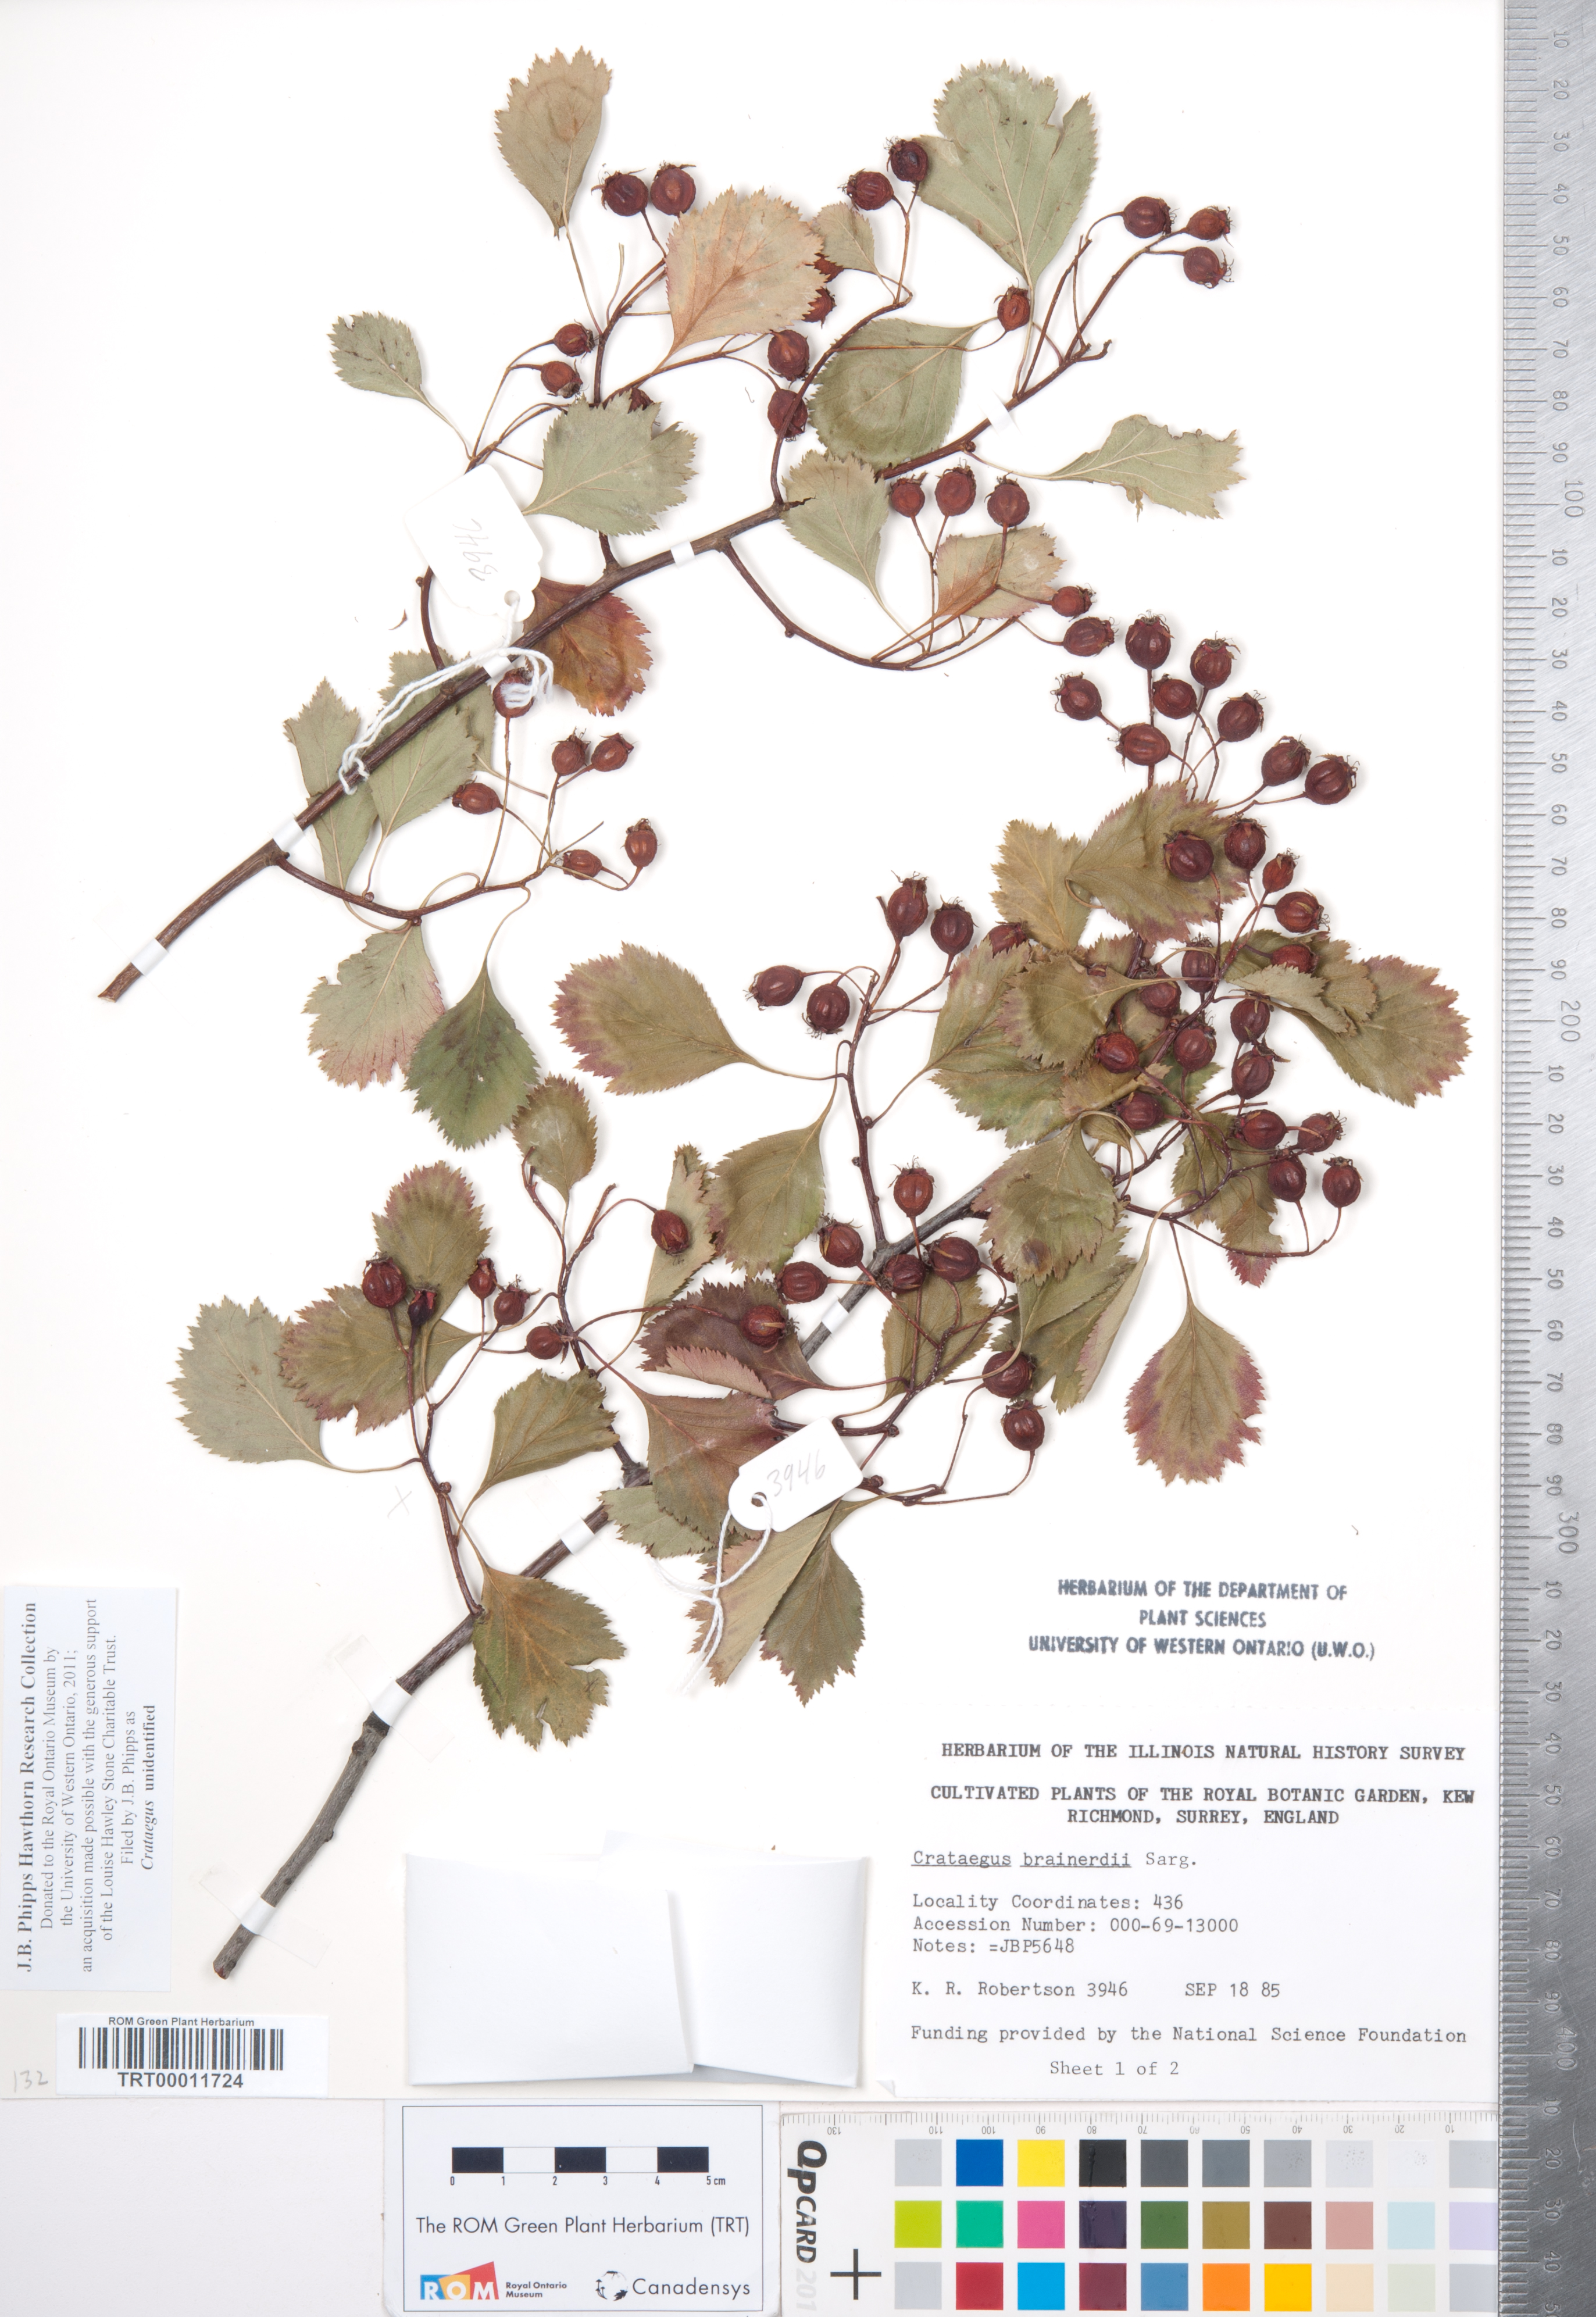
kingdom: Plantae
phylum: Tracheophyta
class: Magnoliopsida
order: Rosales
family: Rosaceae
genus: Crataegus
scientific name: Crataegus
